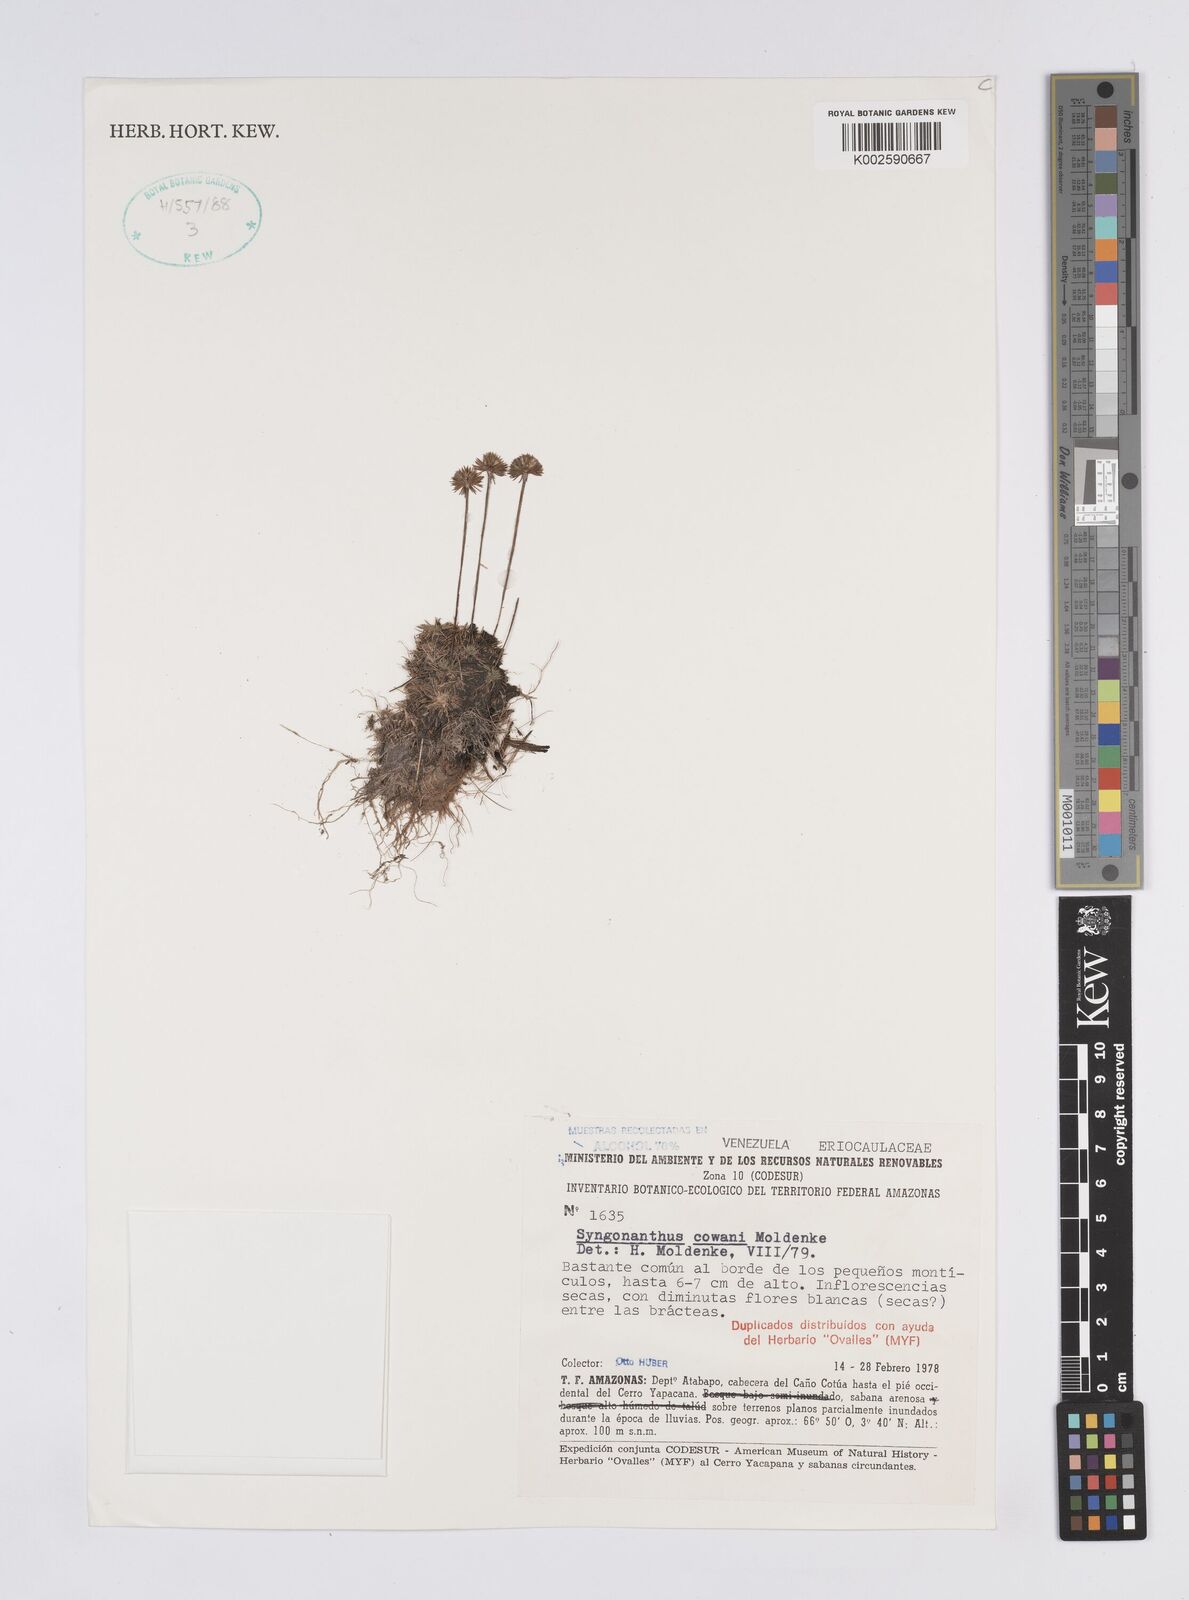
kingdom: Plantae
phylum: Tracheophyta
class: Liliopsida
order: Poales
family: Eriocaulaceae
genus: Syngonanthus
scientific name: Syngonanthus cowanii
